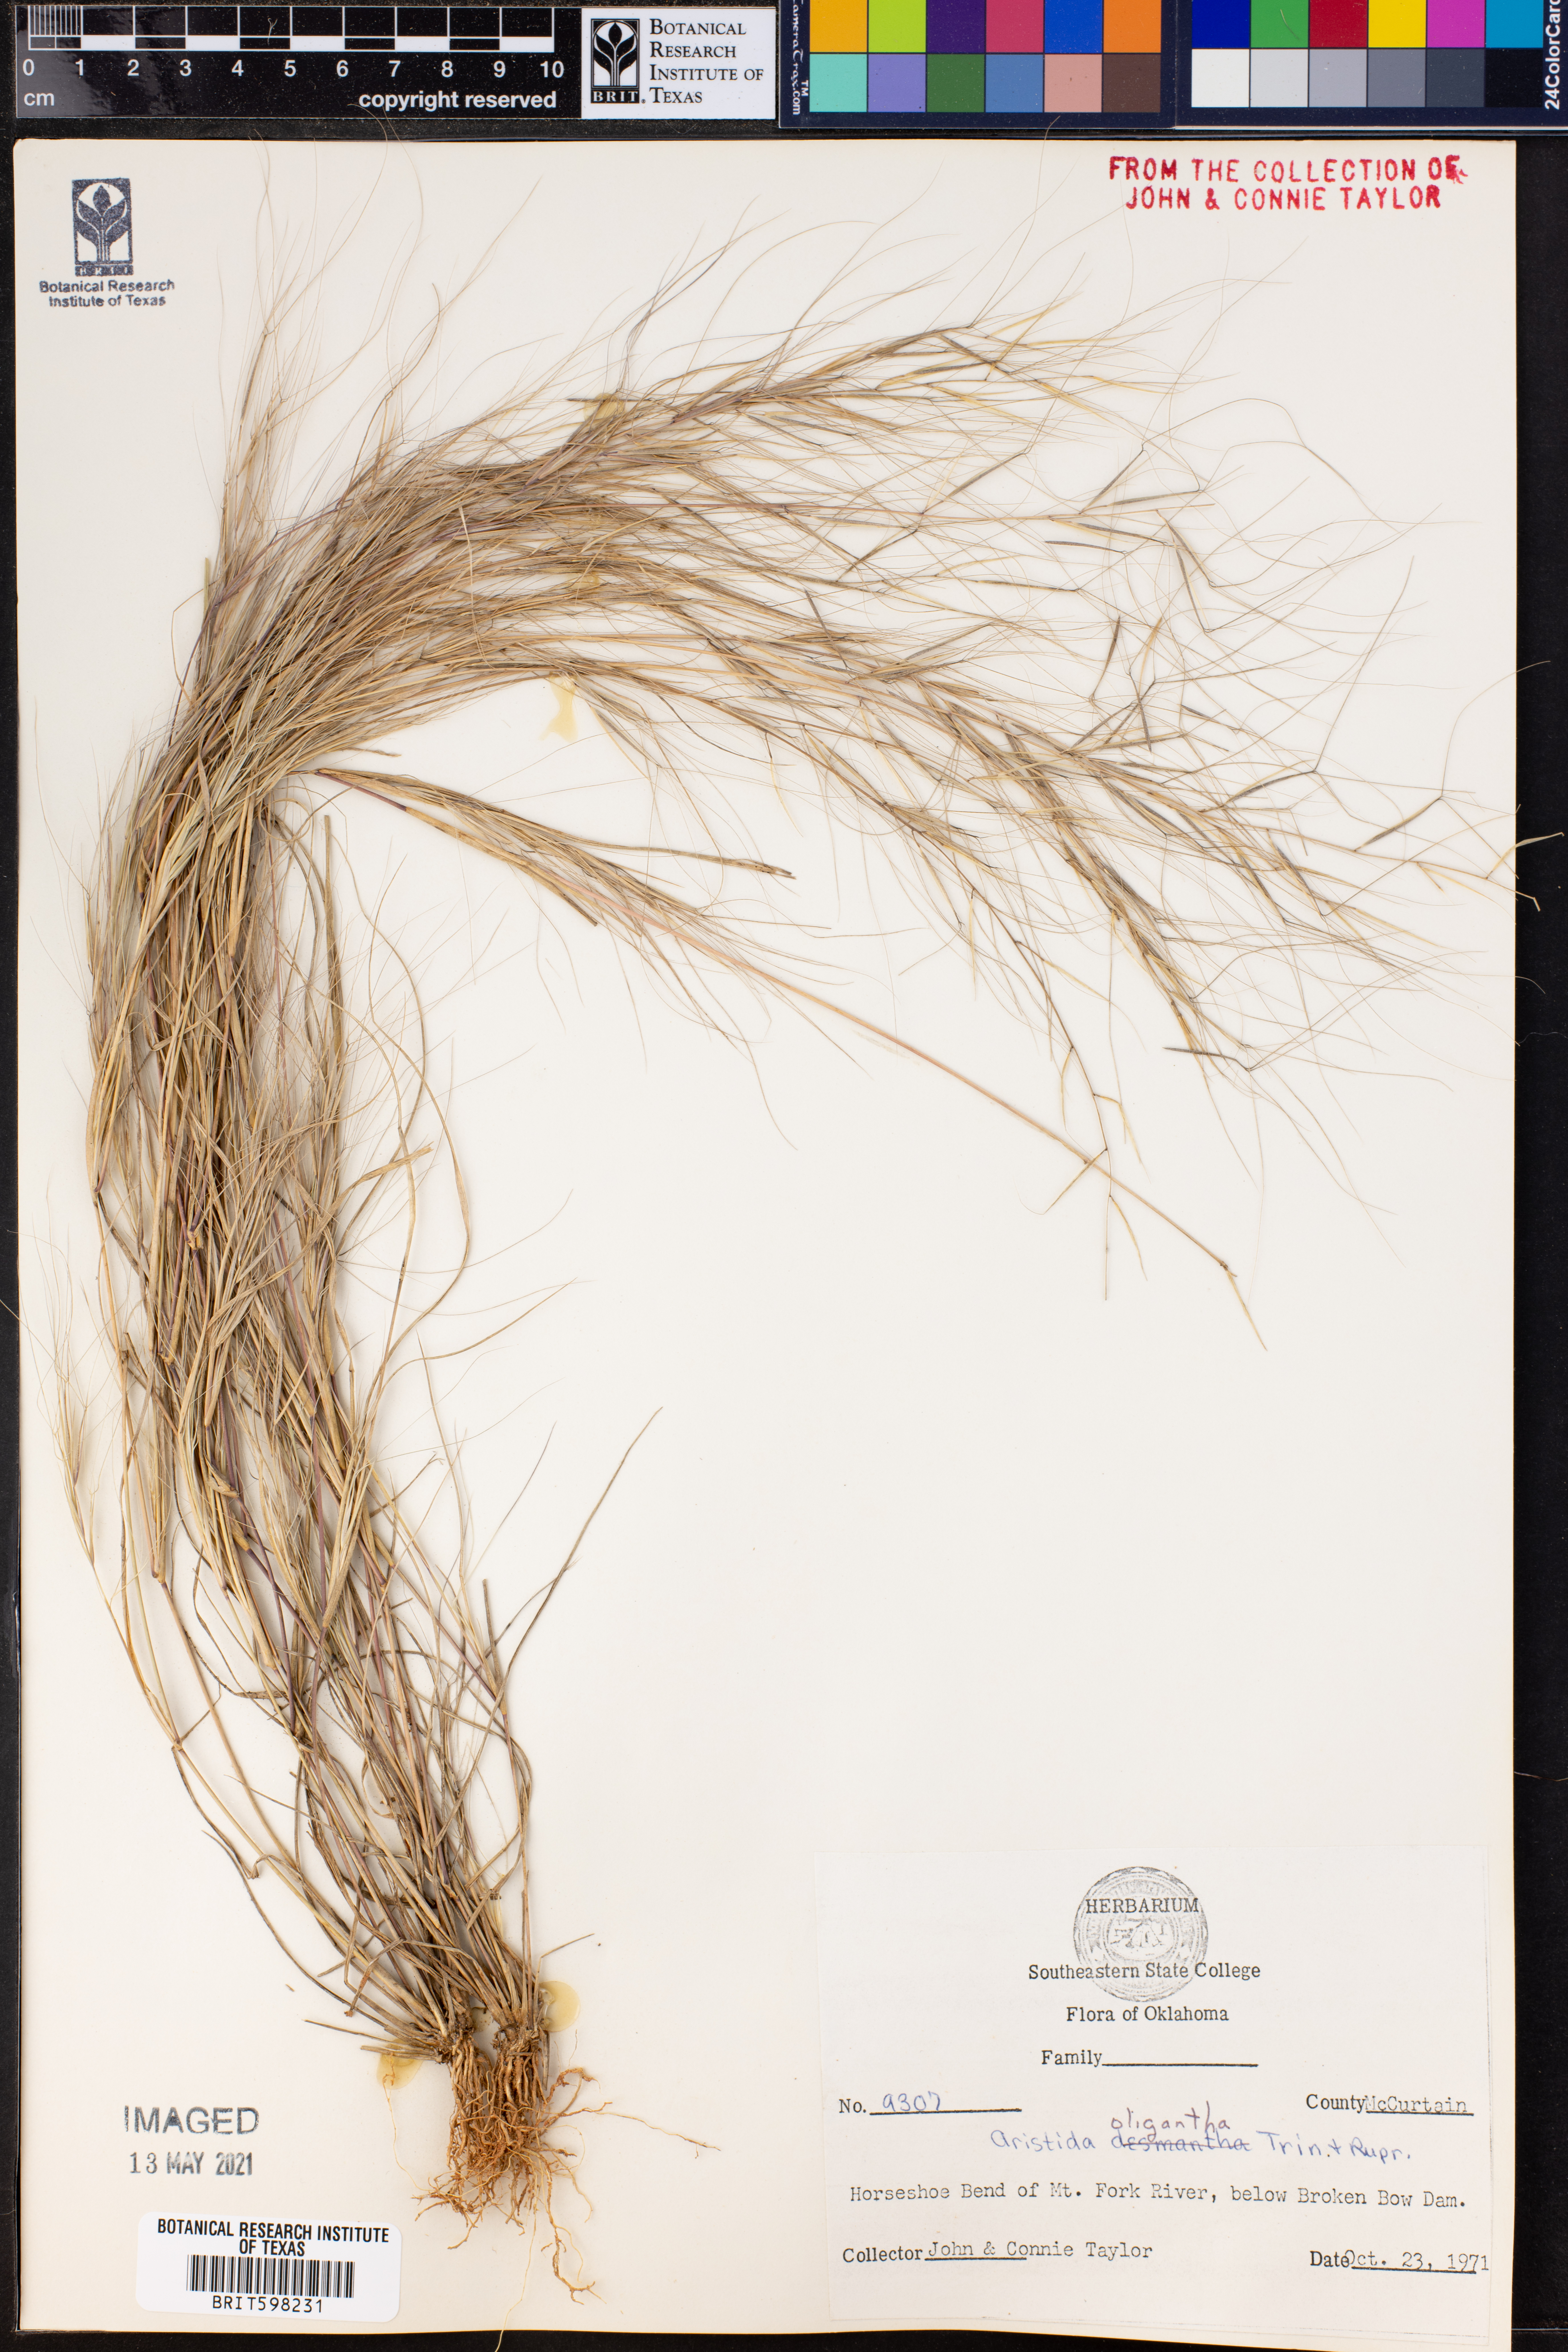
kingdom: Plantae
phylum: Tracheophyta
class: Liliopsida
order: Poales
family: Poaceae
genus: Aristida
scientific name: Aristida oligantha
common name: Few-flowered aristida
